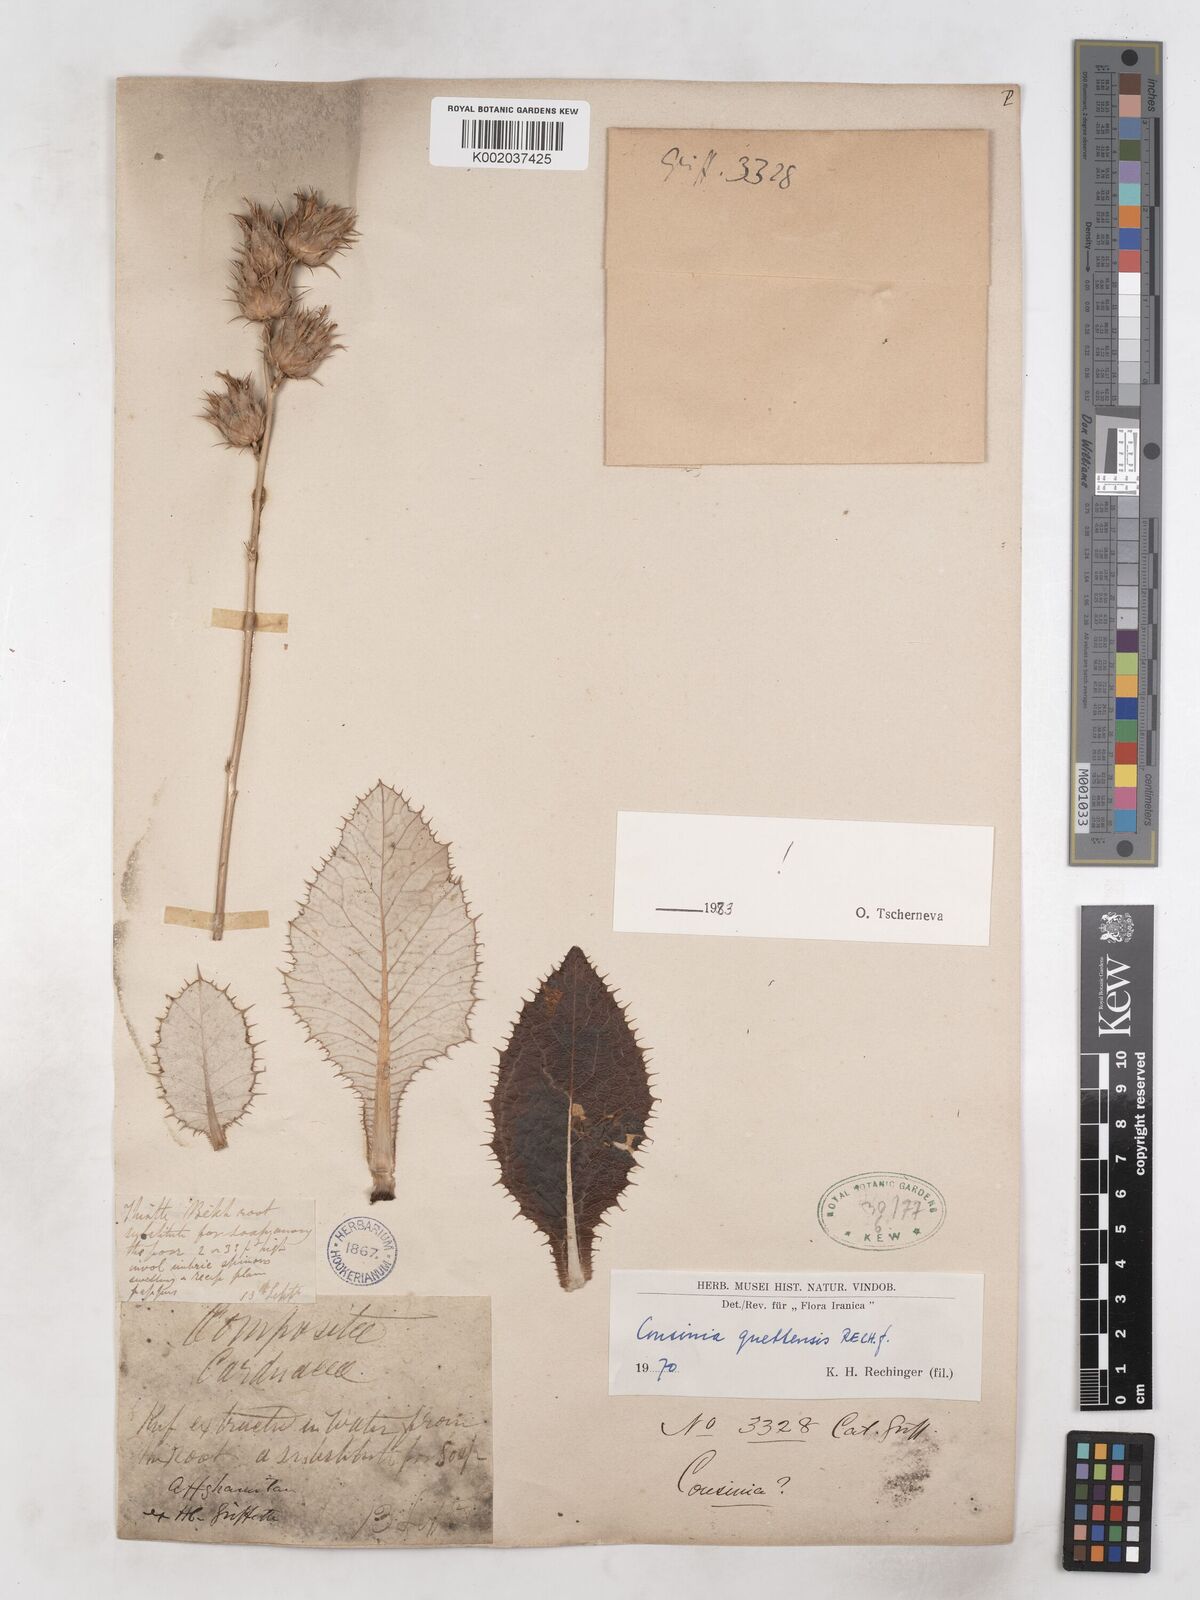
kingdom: Plantae
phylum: Tracheophyta
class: Magnoliopsida
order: Asterales
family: Asteraceae
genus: Cousinia
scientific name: Cousinia quettensis
